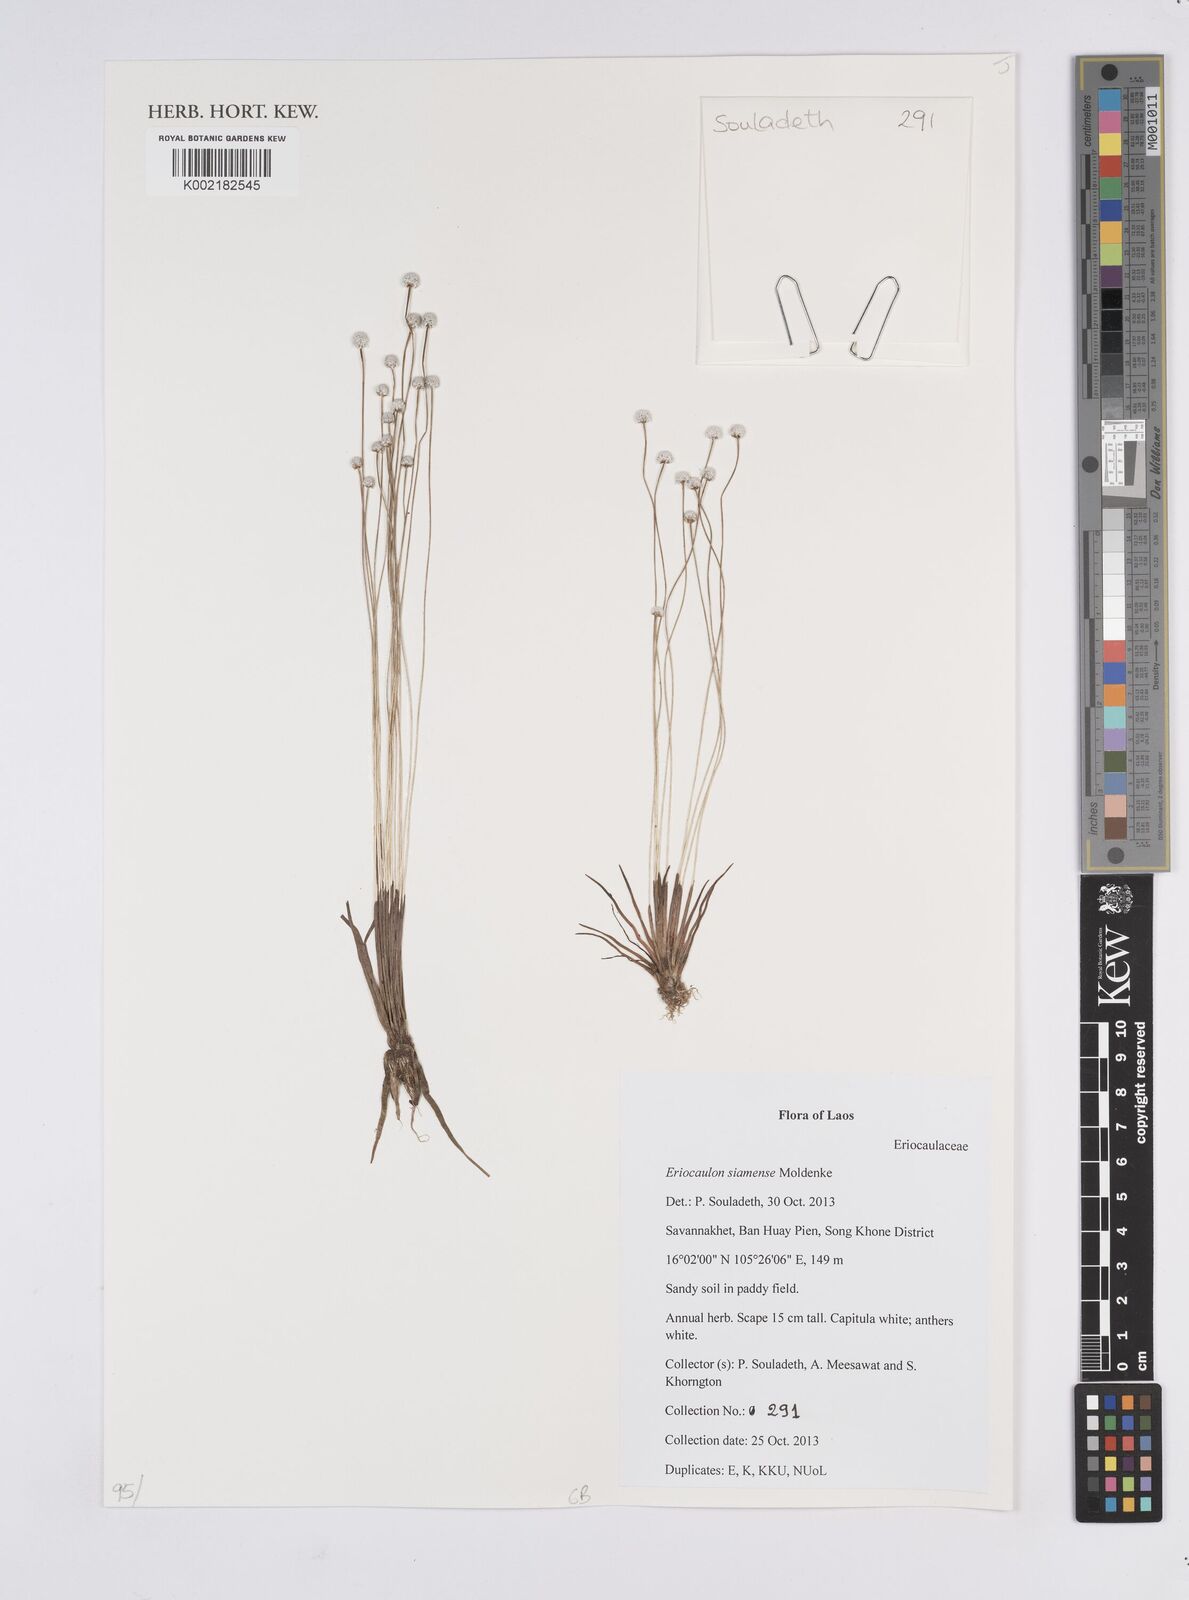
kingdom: Plantae
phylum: Tracheophyta
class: Liliopsida
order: Poales
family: Eriocaulaceae
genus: Eriocaulon
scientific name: Eriocaulon siamense
